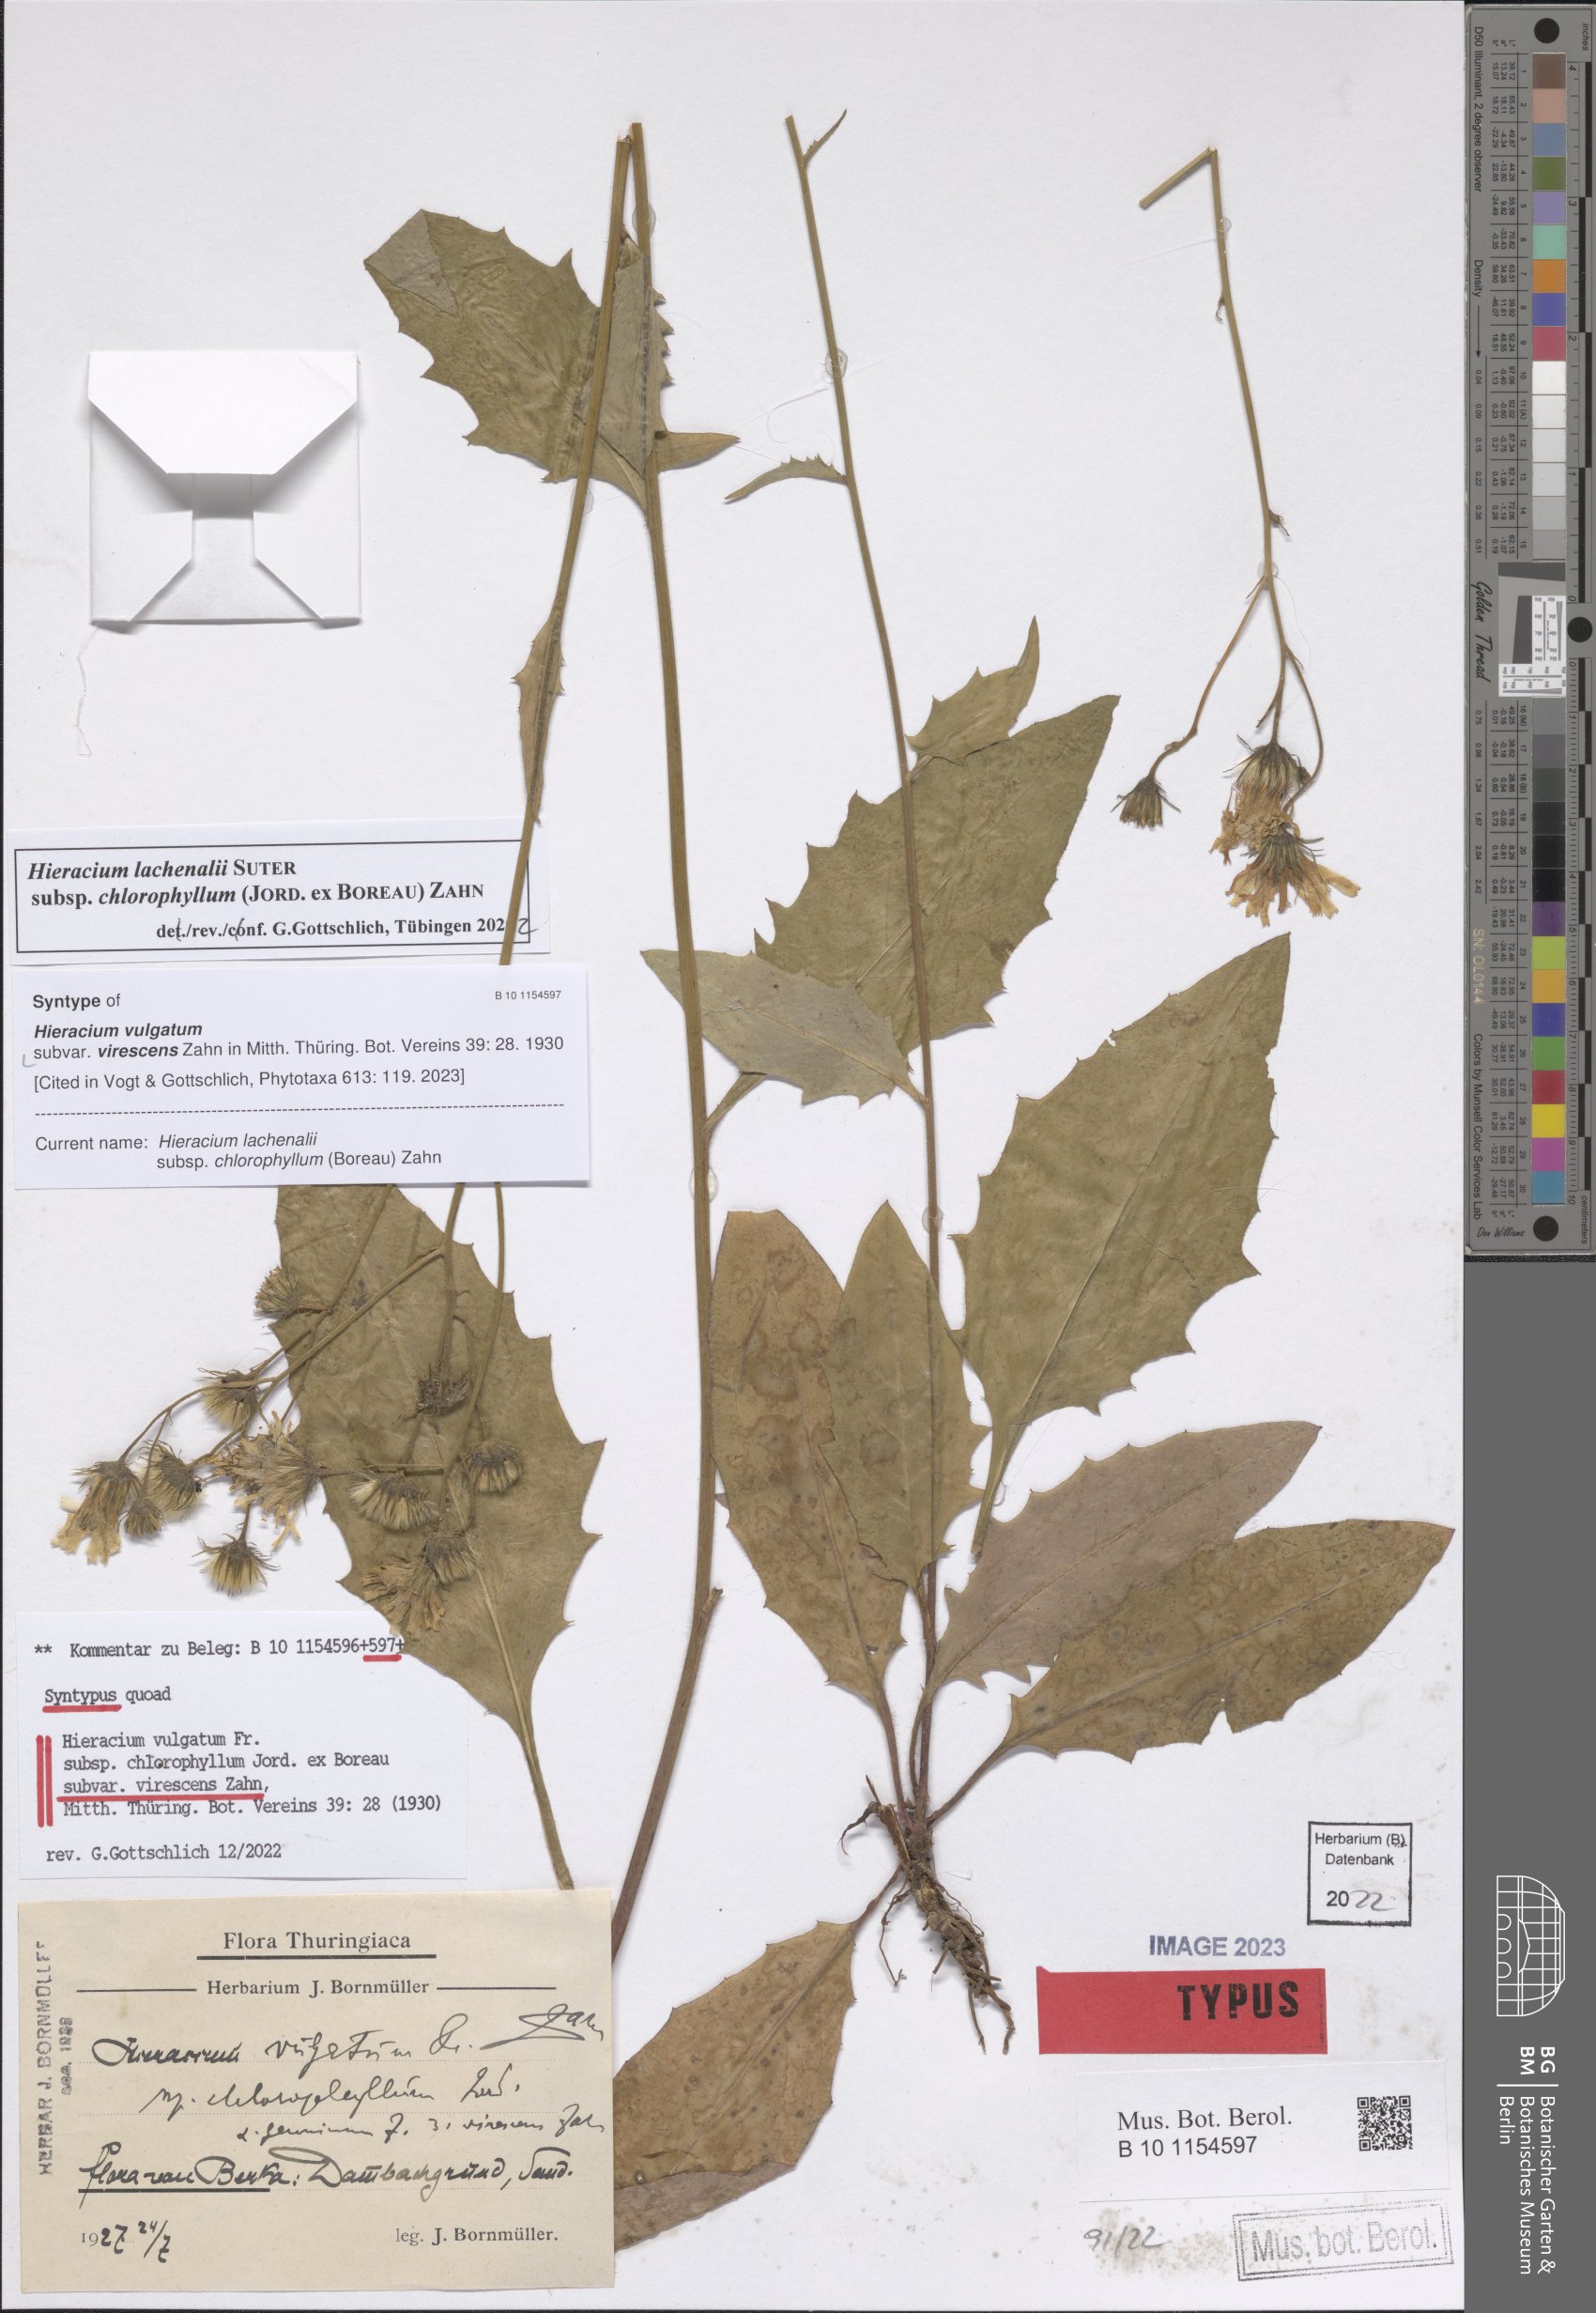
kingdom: Plantae
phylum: Tracheophyta
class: Magnoliopsida
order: Asterales
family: Asteraceae
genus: Hieracium
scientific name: Hieracium vulgatum
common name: Common hawkweed
